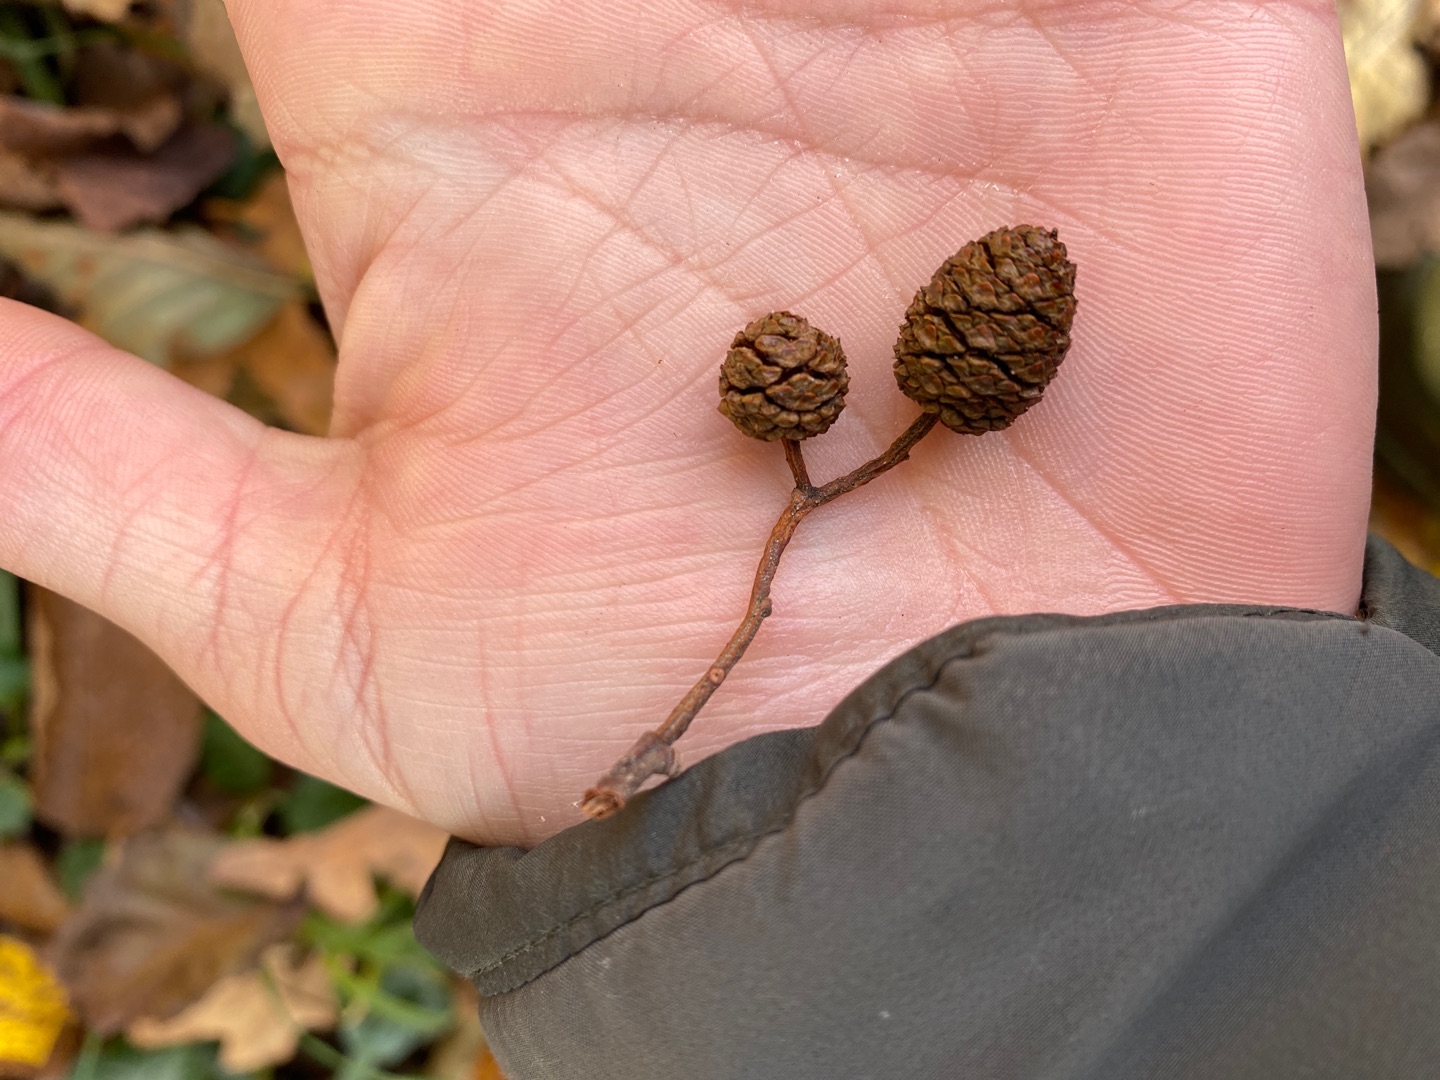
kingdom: Plantae
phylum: Tracheophyta
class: Magnoliopsida
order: Fagales
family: Betulaceae
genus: Alnus
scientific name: Alnus
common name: Elleslægten
